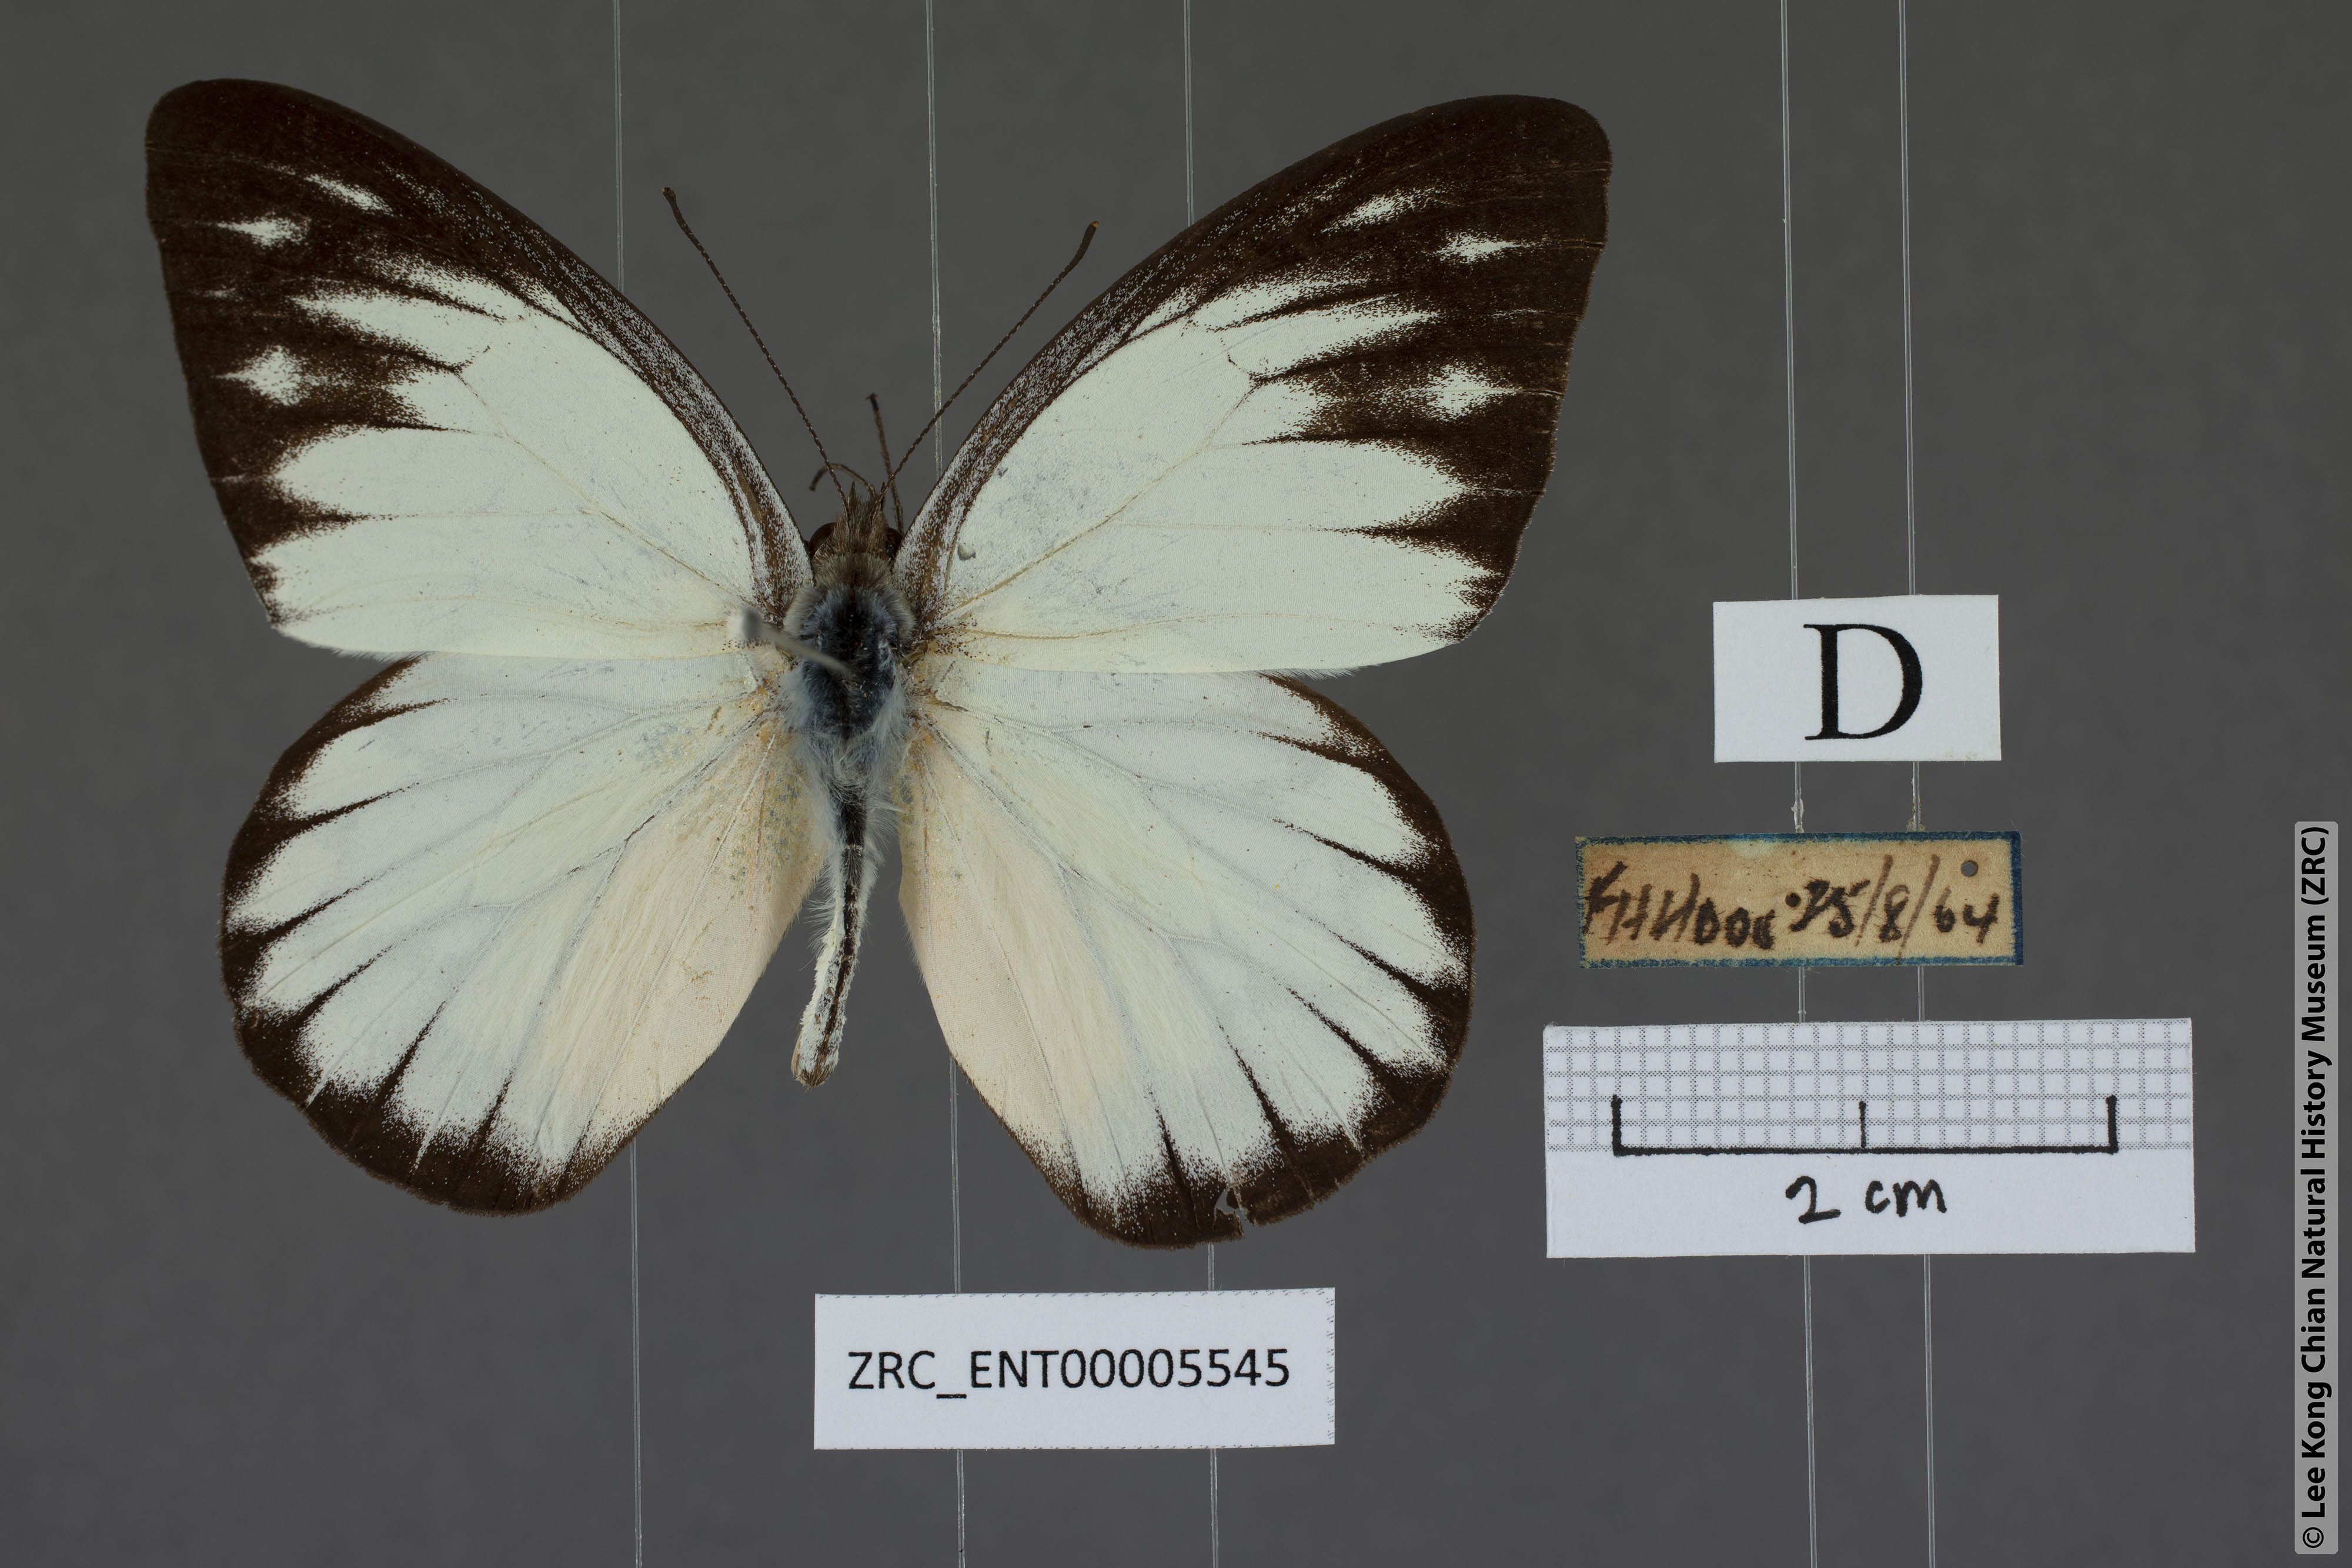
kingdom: Animalia
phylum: Arthropoda
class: Insecta
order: Lepidoptera
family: Pieridae
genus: Appias
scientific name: Appias cardena
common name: Yellow puffin
